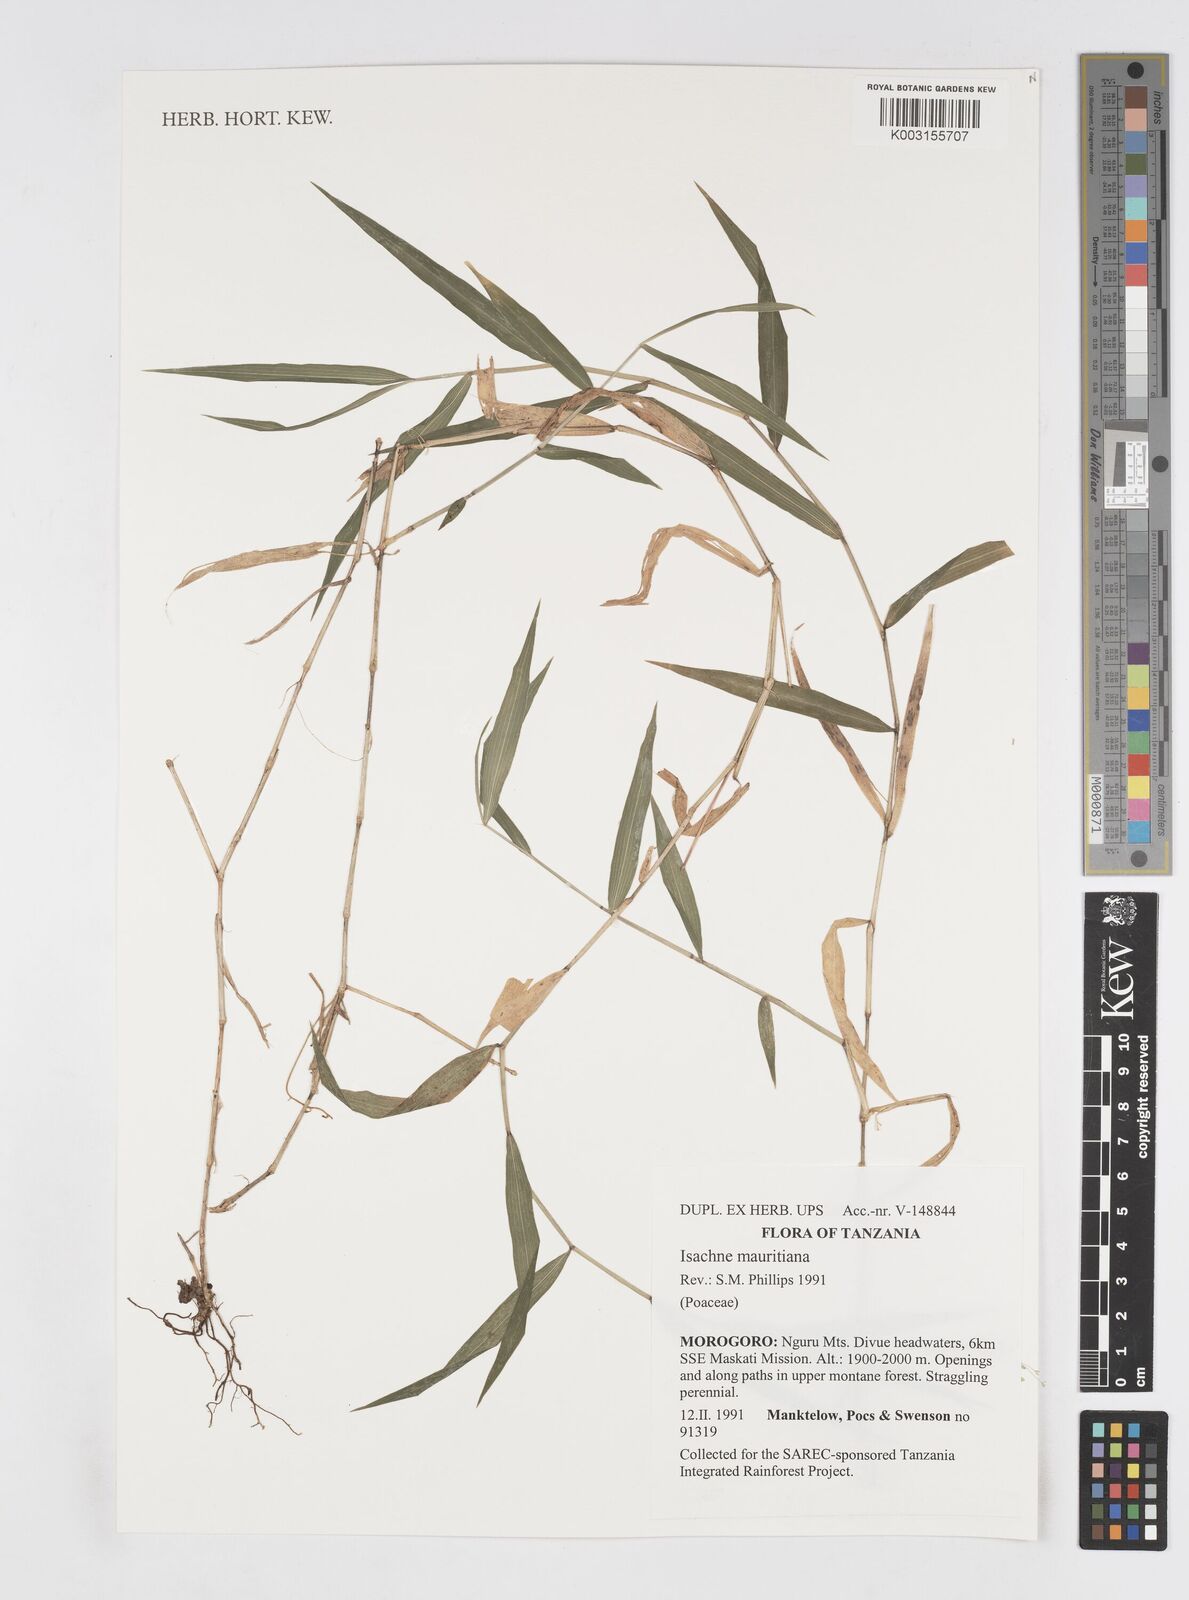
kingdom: Plantae
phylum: Tracheophyta
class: Liliopsida
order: Poales
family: Poaceae
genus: Isachne
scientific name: Isachne mauritiana
